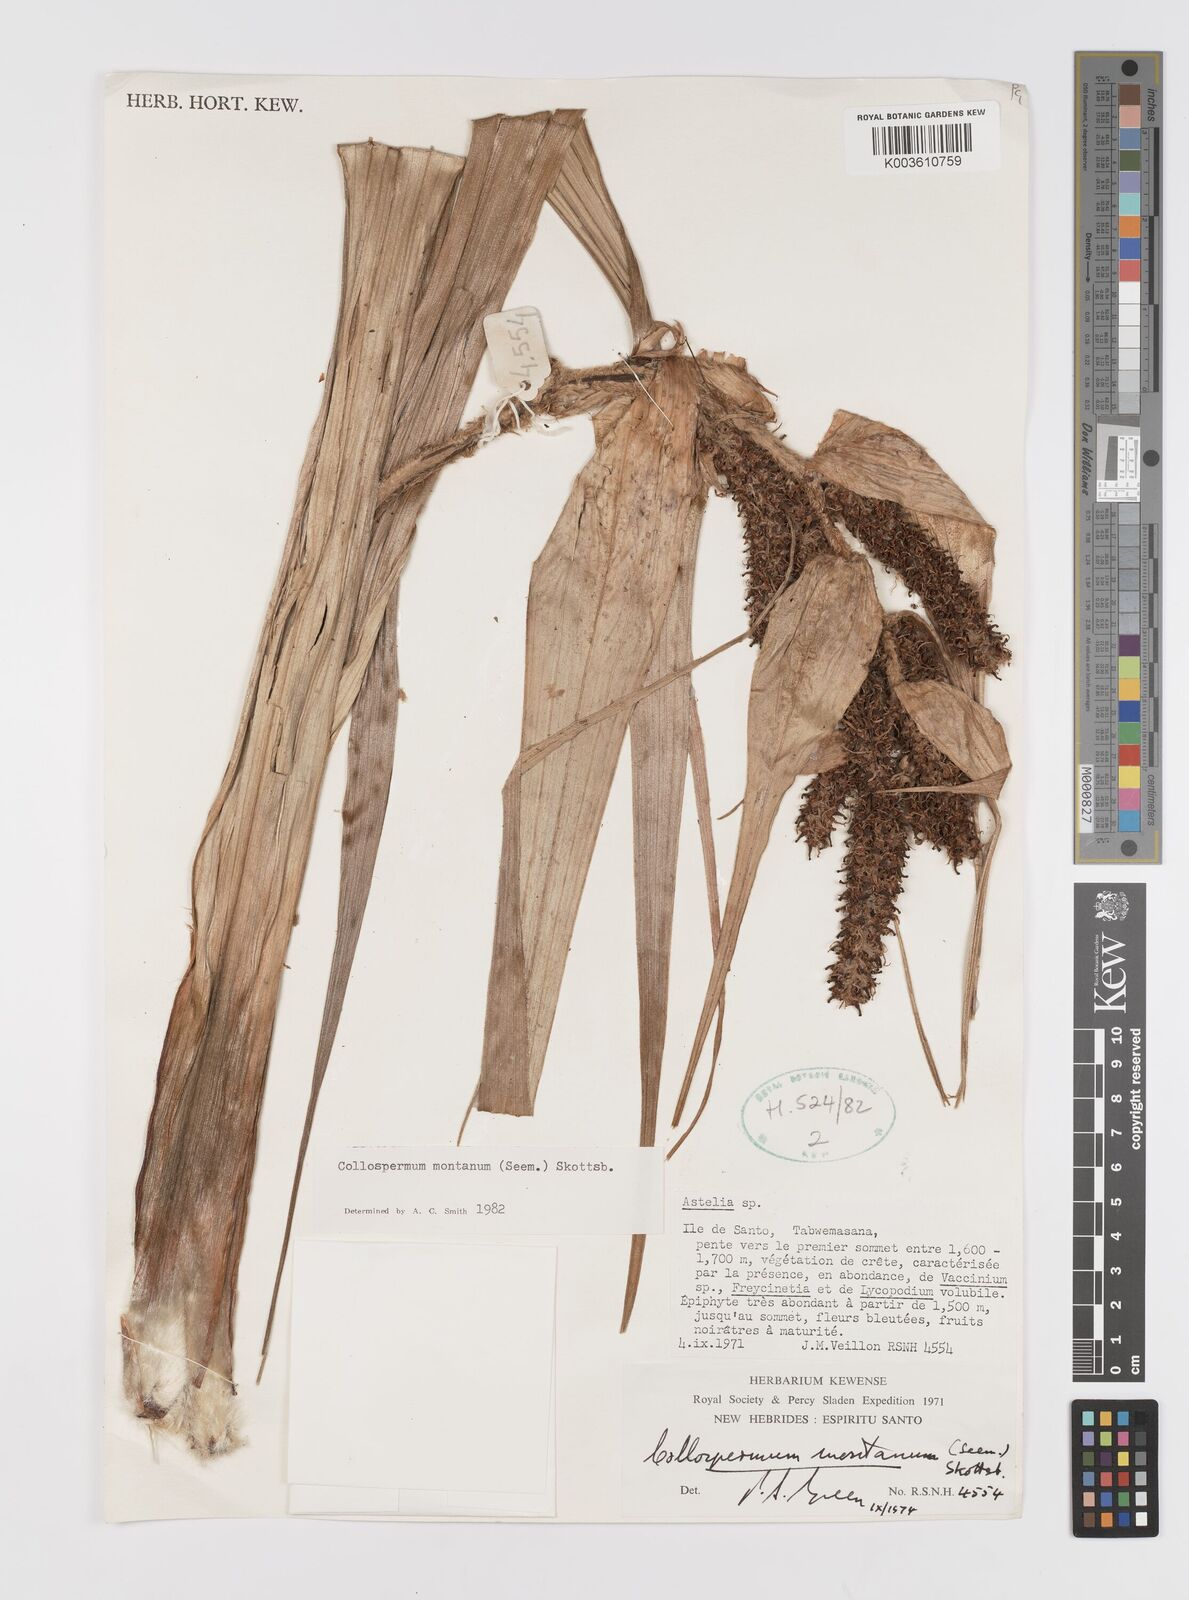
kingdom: Plantae
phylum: Tracheophyta
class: Liliopsida
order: Asparagales
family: Asteliaceae
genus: Astelia
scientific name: Astelia montana
